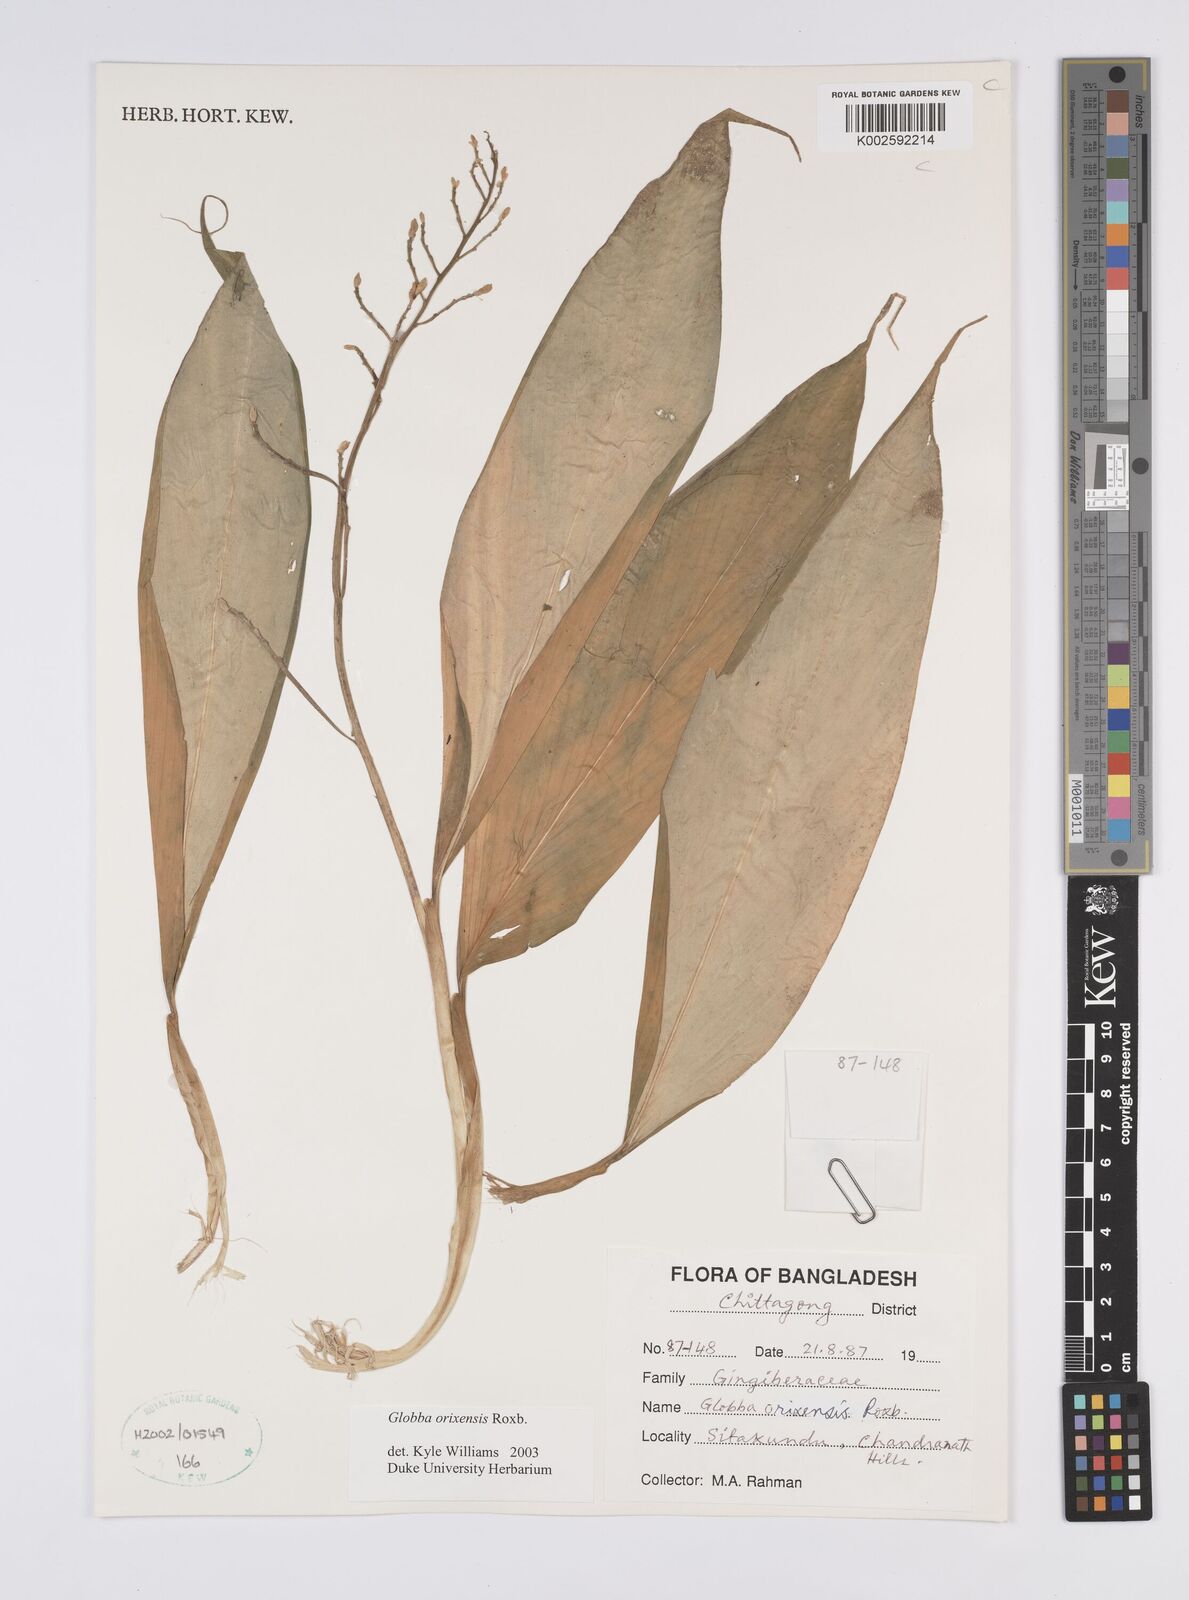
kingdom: Plantae
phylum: Tracheophyta
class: Liliopsida
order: Zingiberales
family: Zingiberaceae
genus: Globba
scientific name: Globba orixensis
